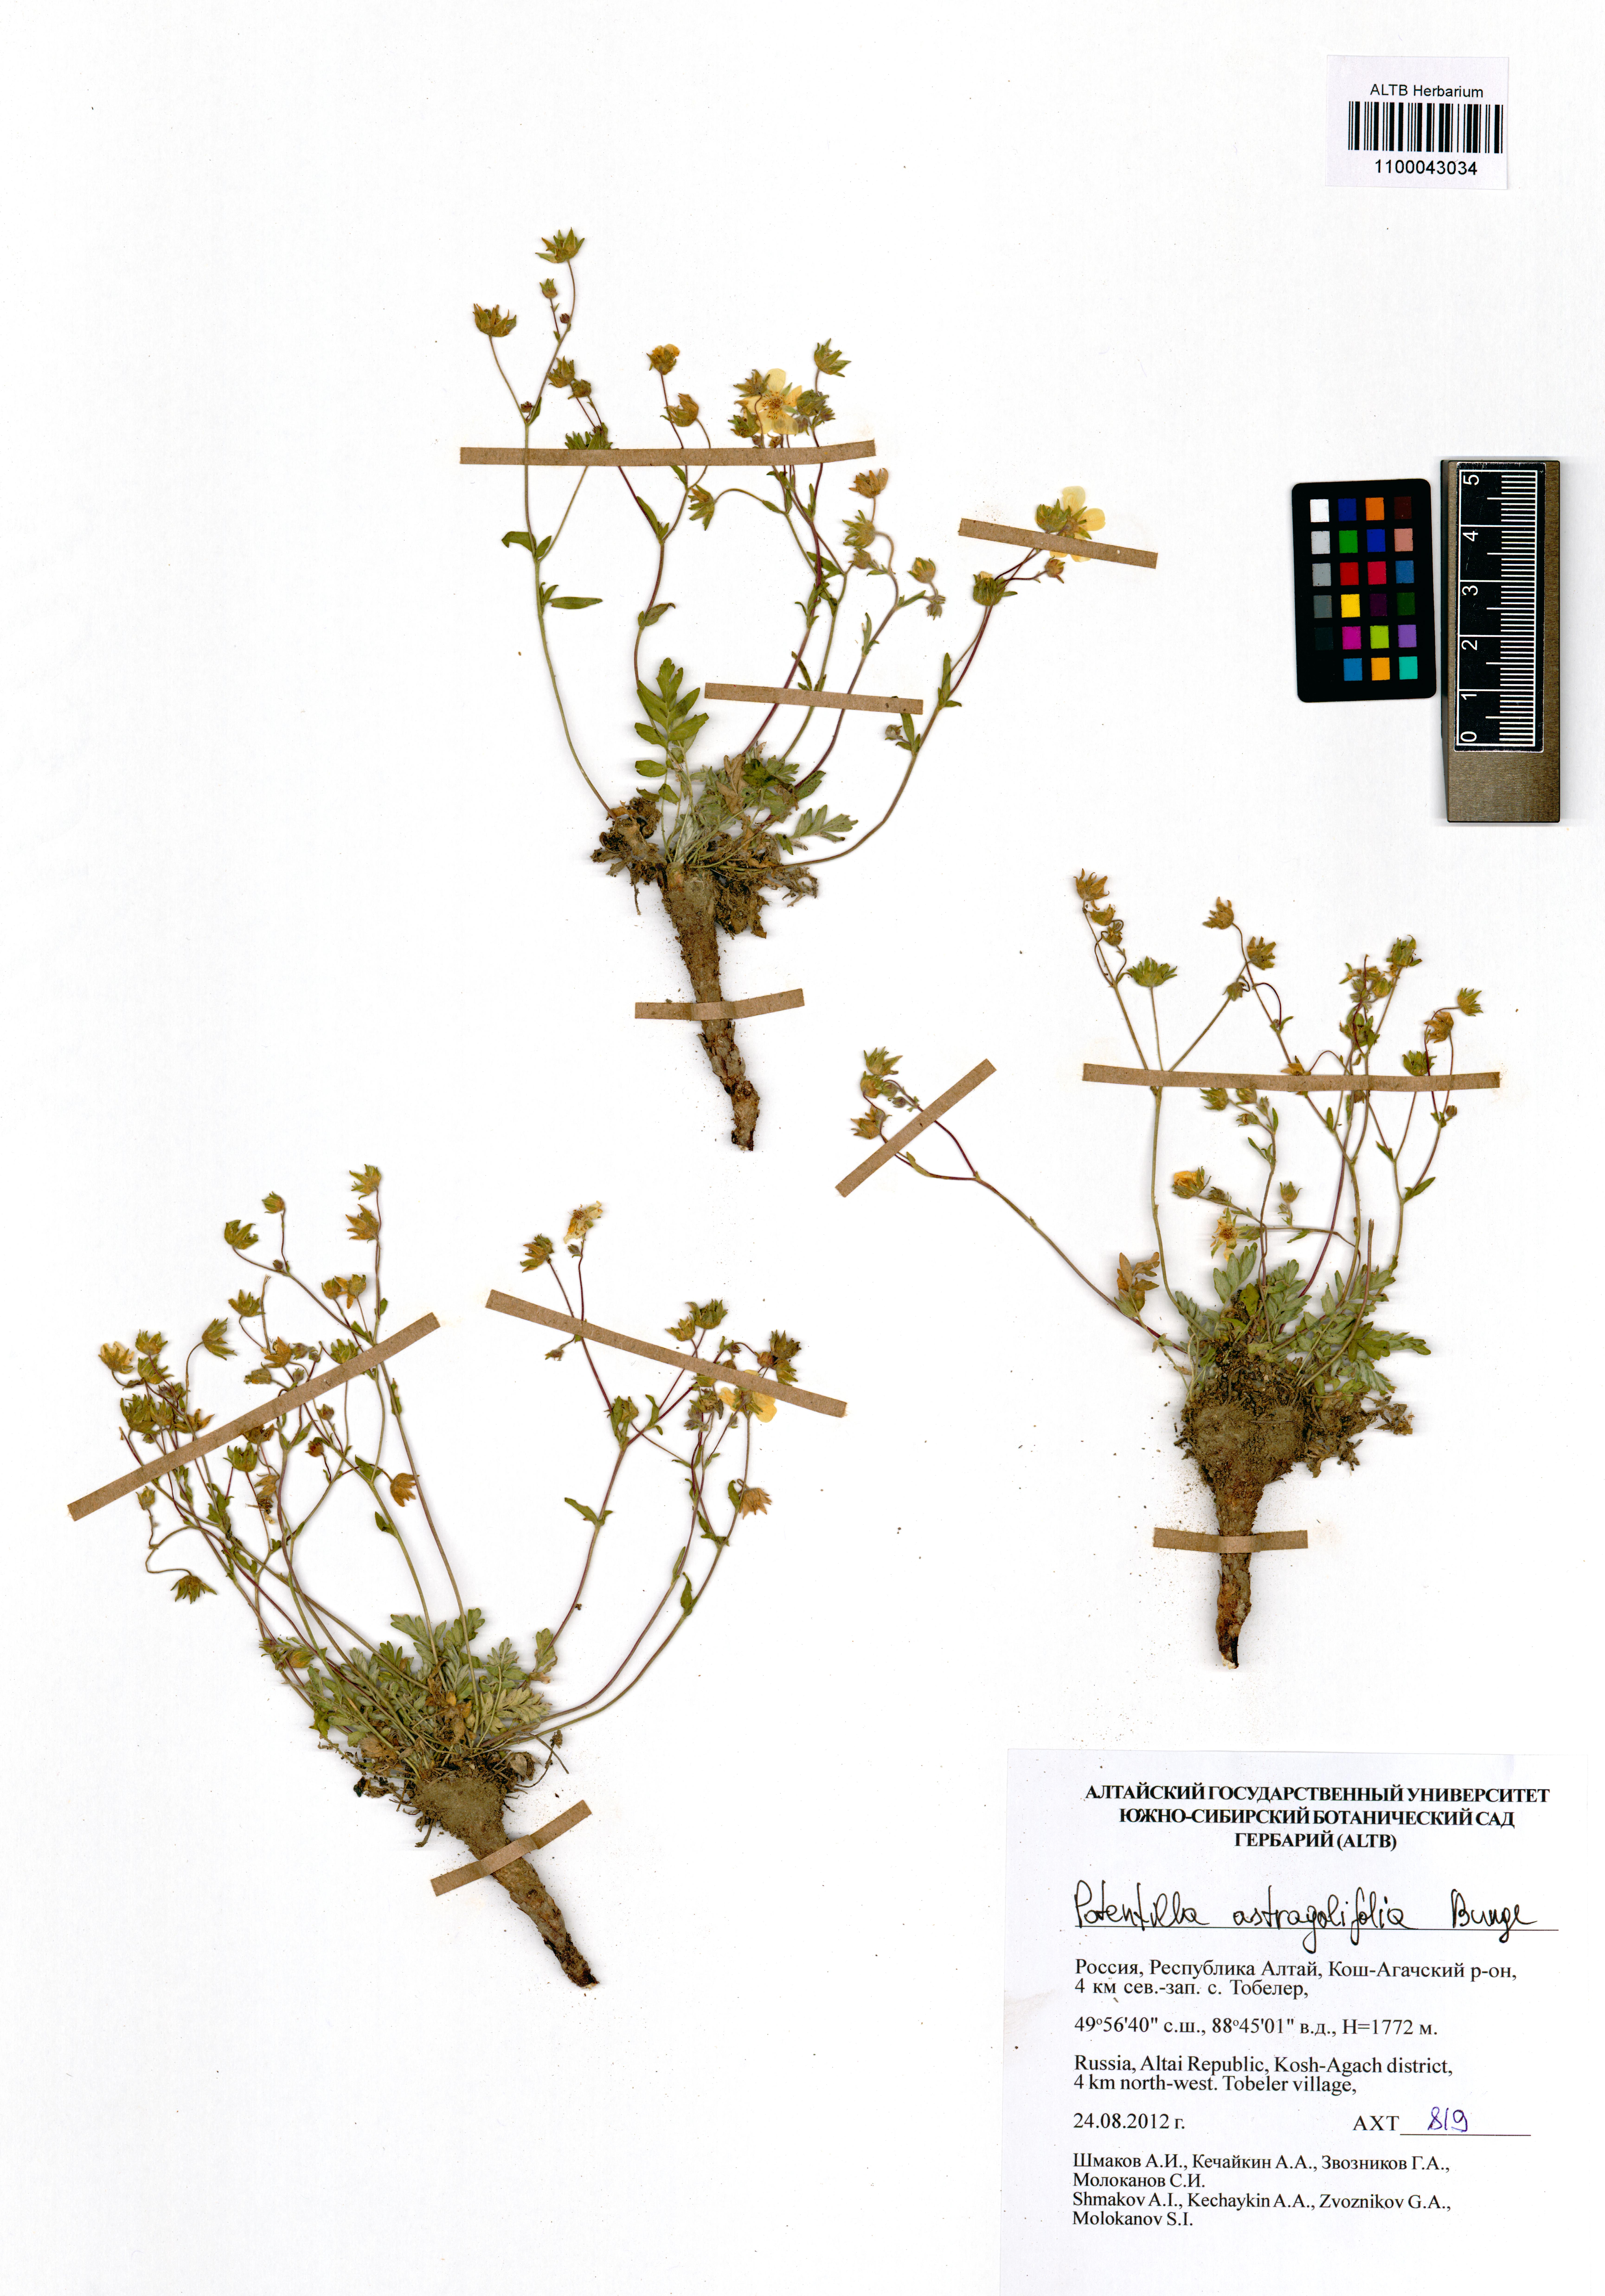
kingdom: Plantae
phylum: Tracheophyta
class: Magnoliopsida
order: Rosales
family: Rosaceae
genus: Potentilla
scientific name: Potentilla astragalifolia
